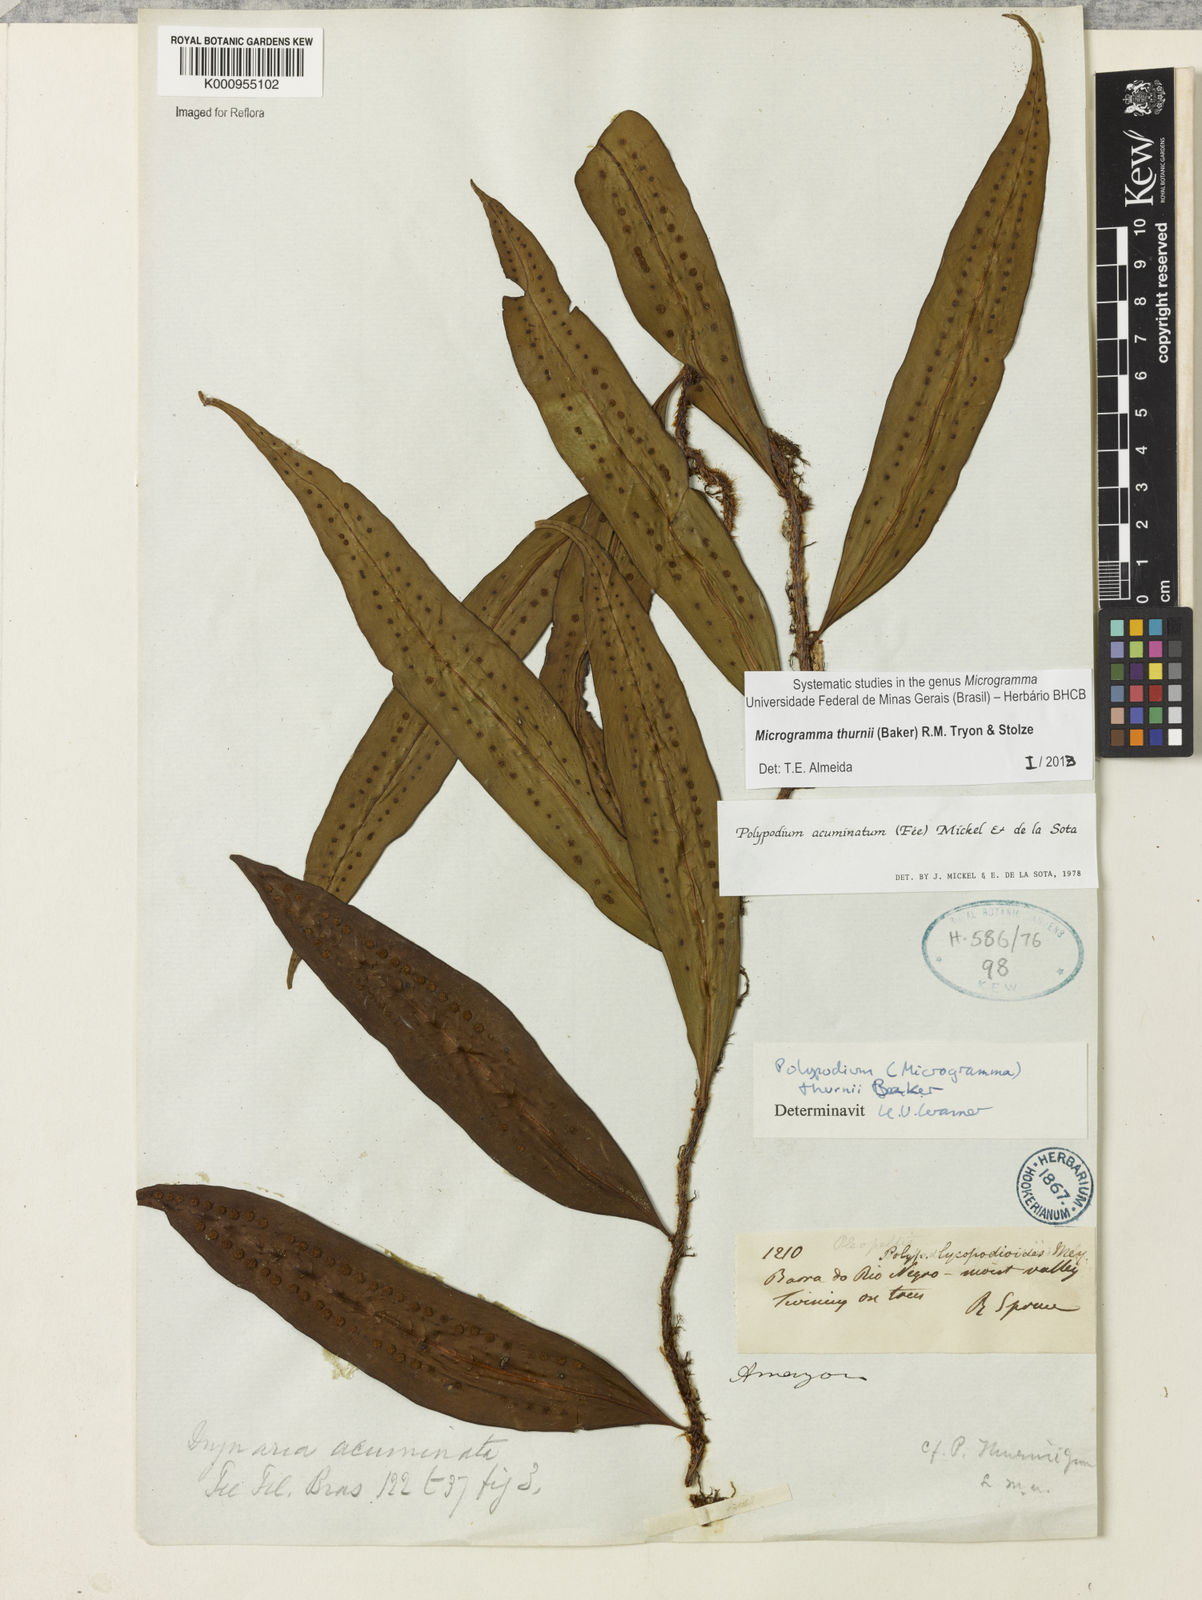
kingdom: Plantae
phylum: Tracheophyta
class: Polypodiopsida
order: Polypodiales
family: Polypodiaceae
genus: Microgramma
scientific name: Microgramma thurnii
